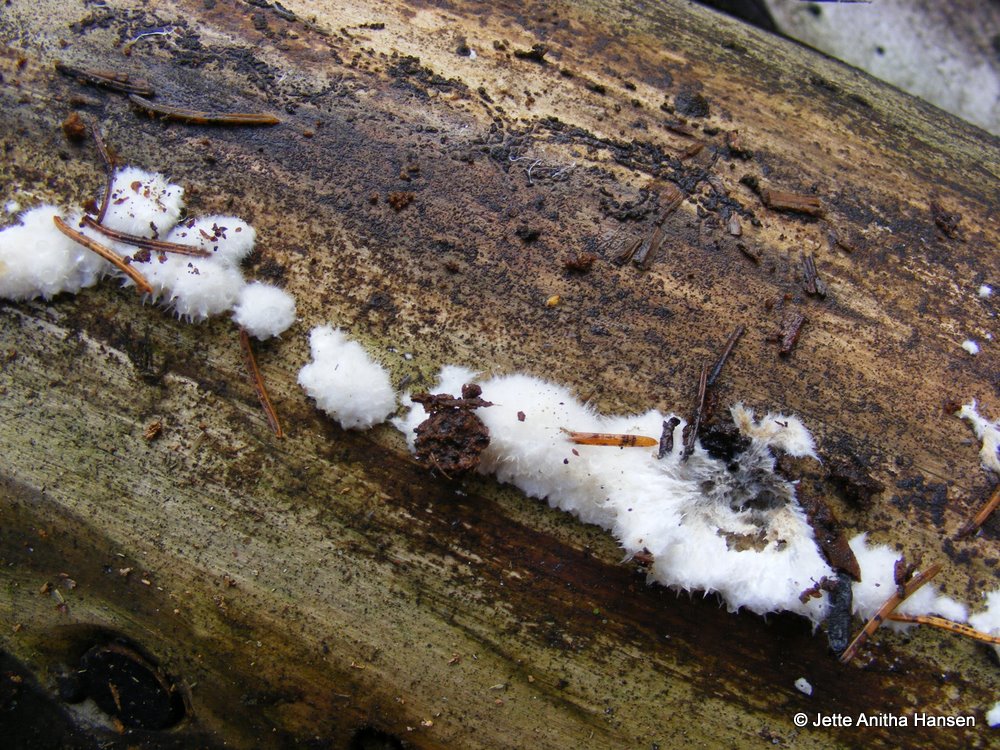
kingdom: Fungi
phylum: Basidiomycota
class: Agaricomycetes
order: Polyporales
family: Dacryobolaceae
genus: Postia
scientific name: Postia ptychogaster
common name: støvende kødporesvamp
